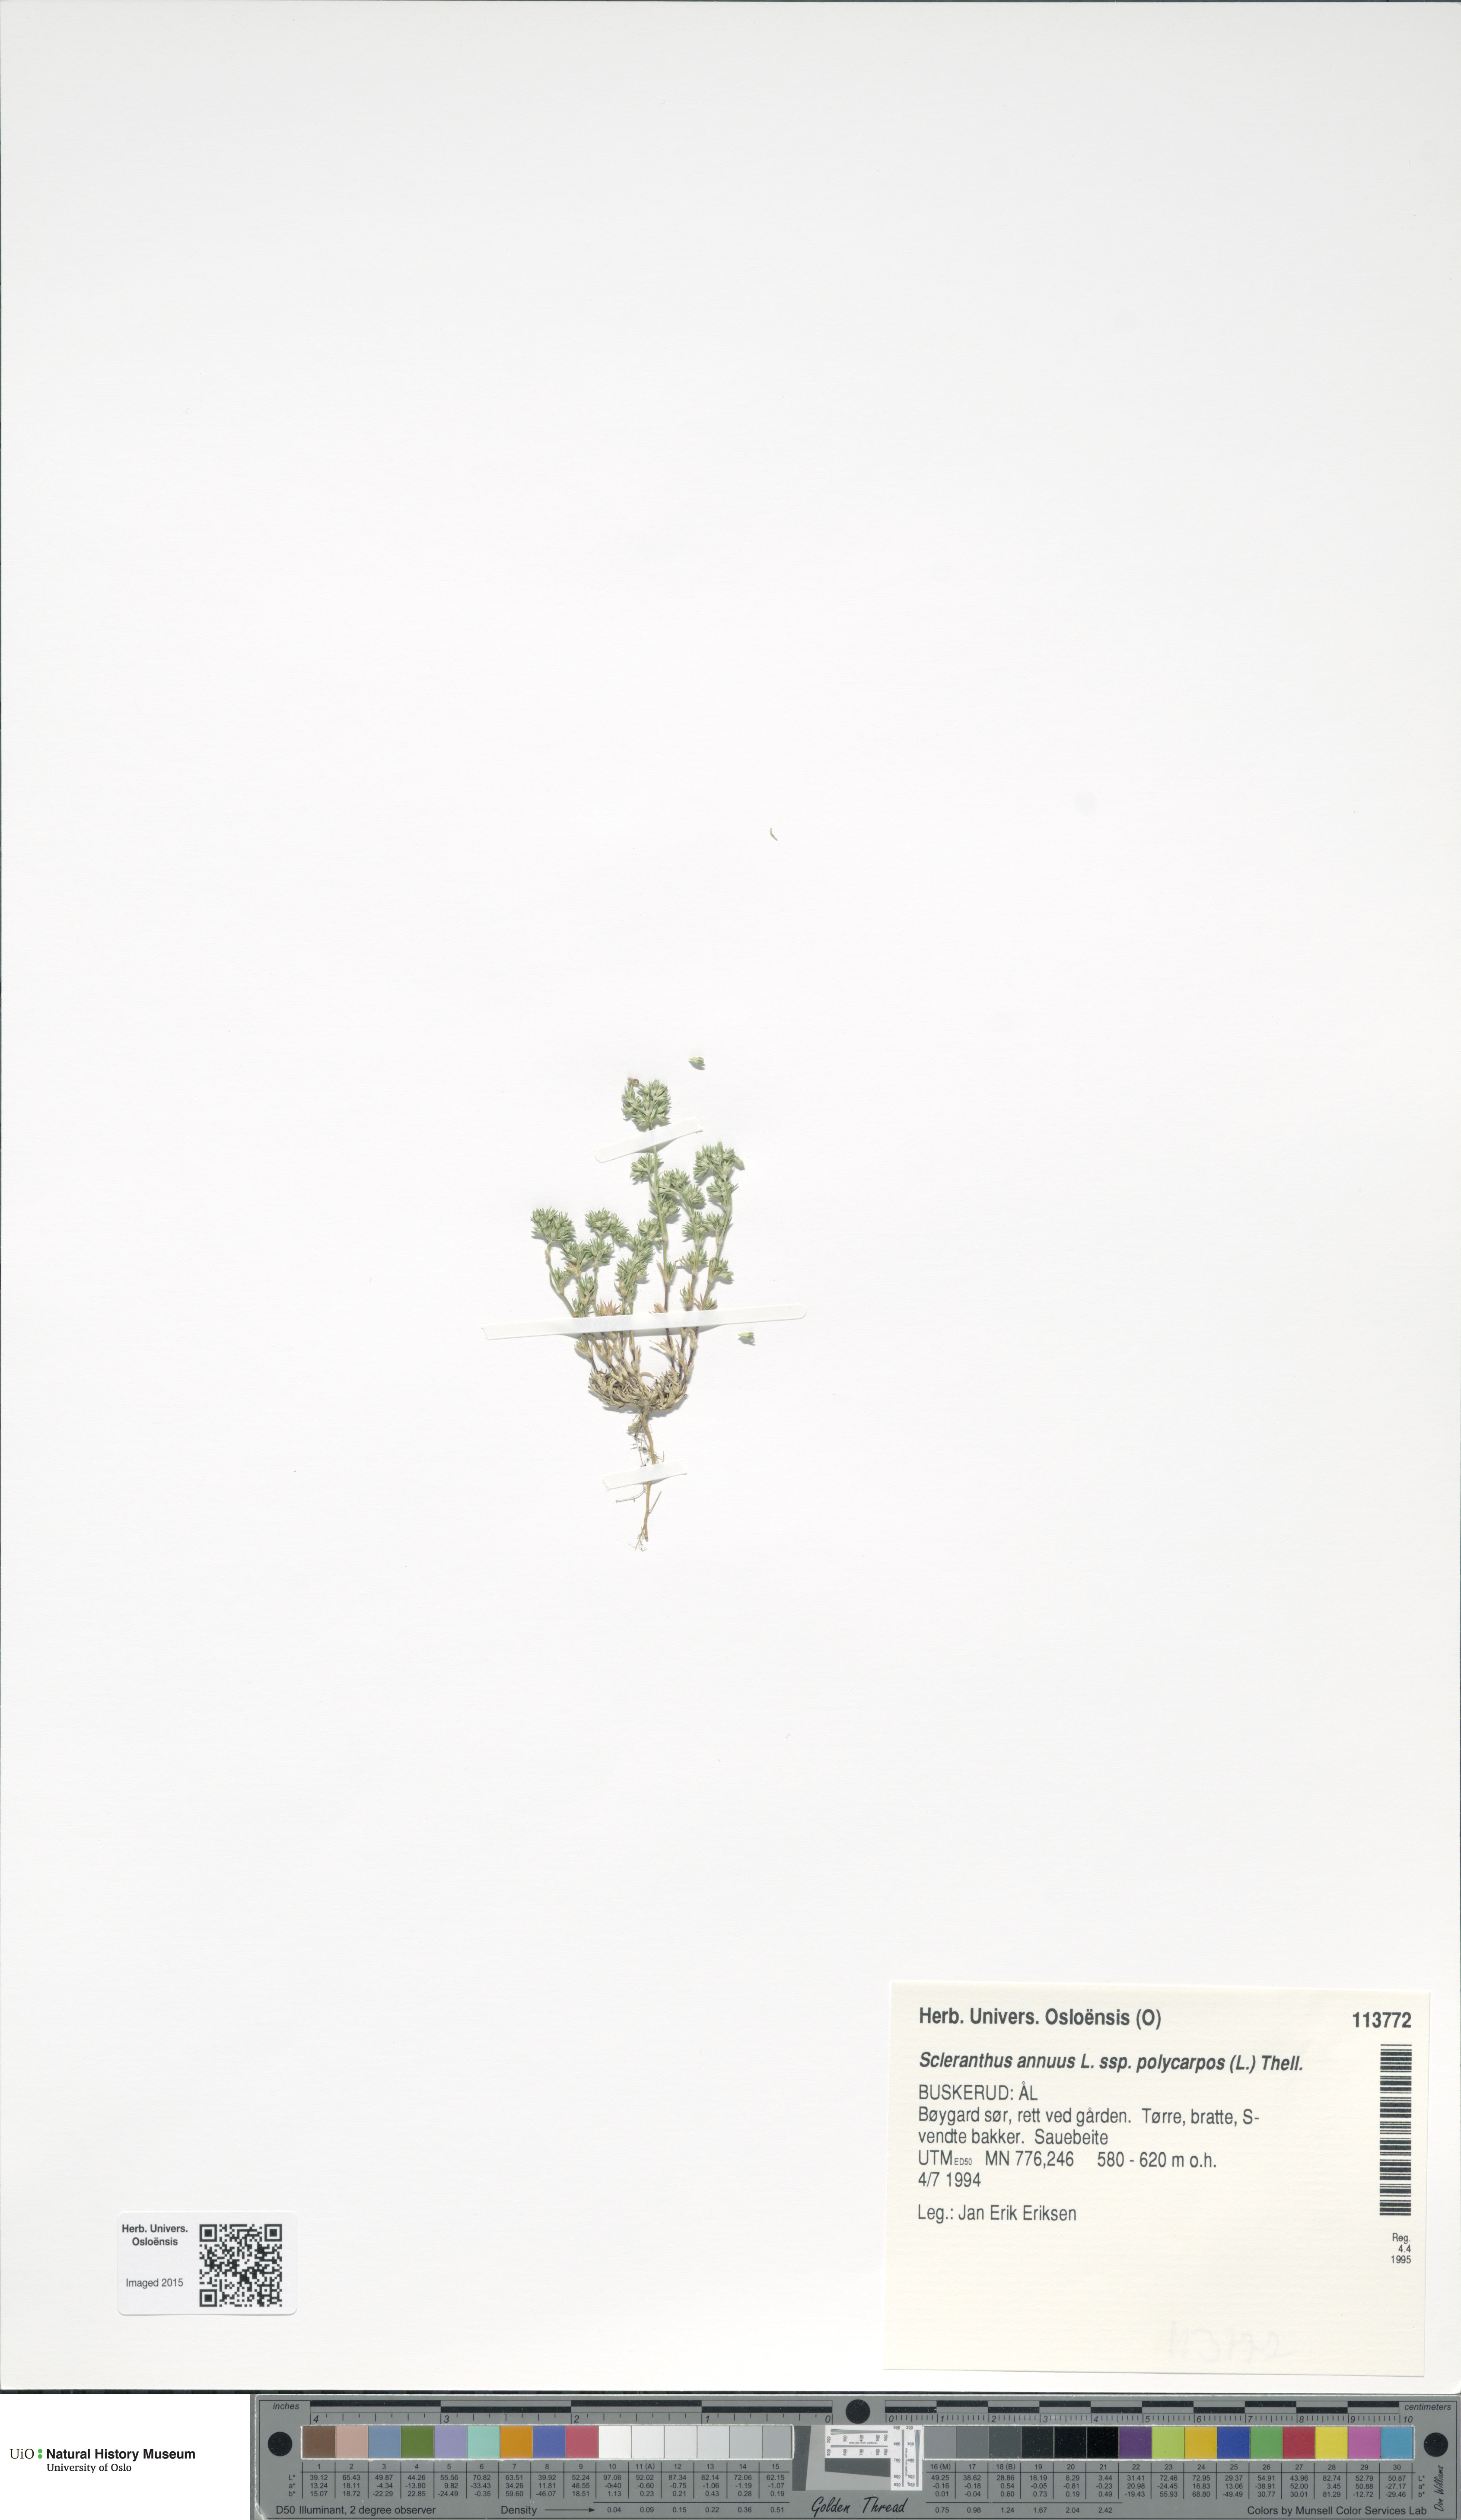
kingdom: Plantae
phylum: Tracheophyta
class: Magnoliopsida
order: Caryophyllales
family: Caryophyllaceae
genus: Scleranthus
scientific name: Scleranthus annuus
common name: Annual knawel
